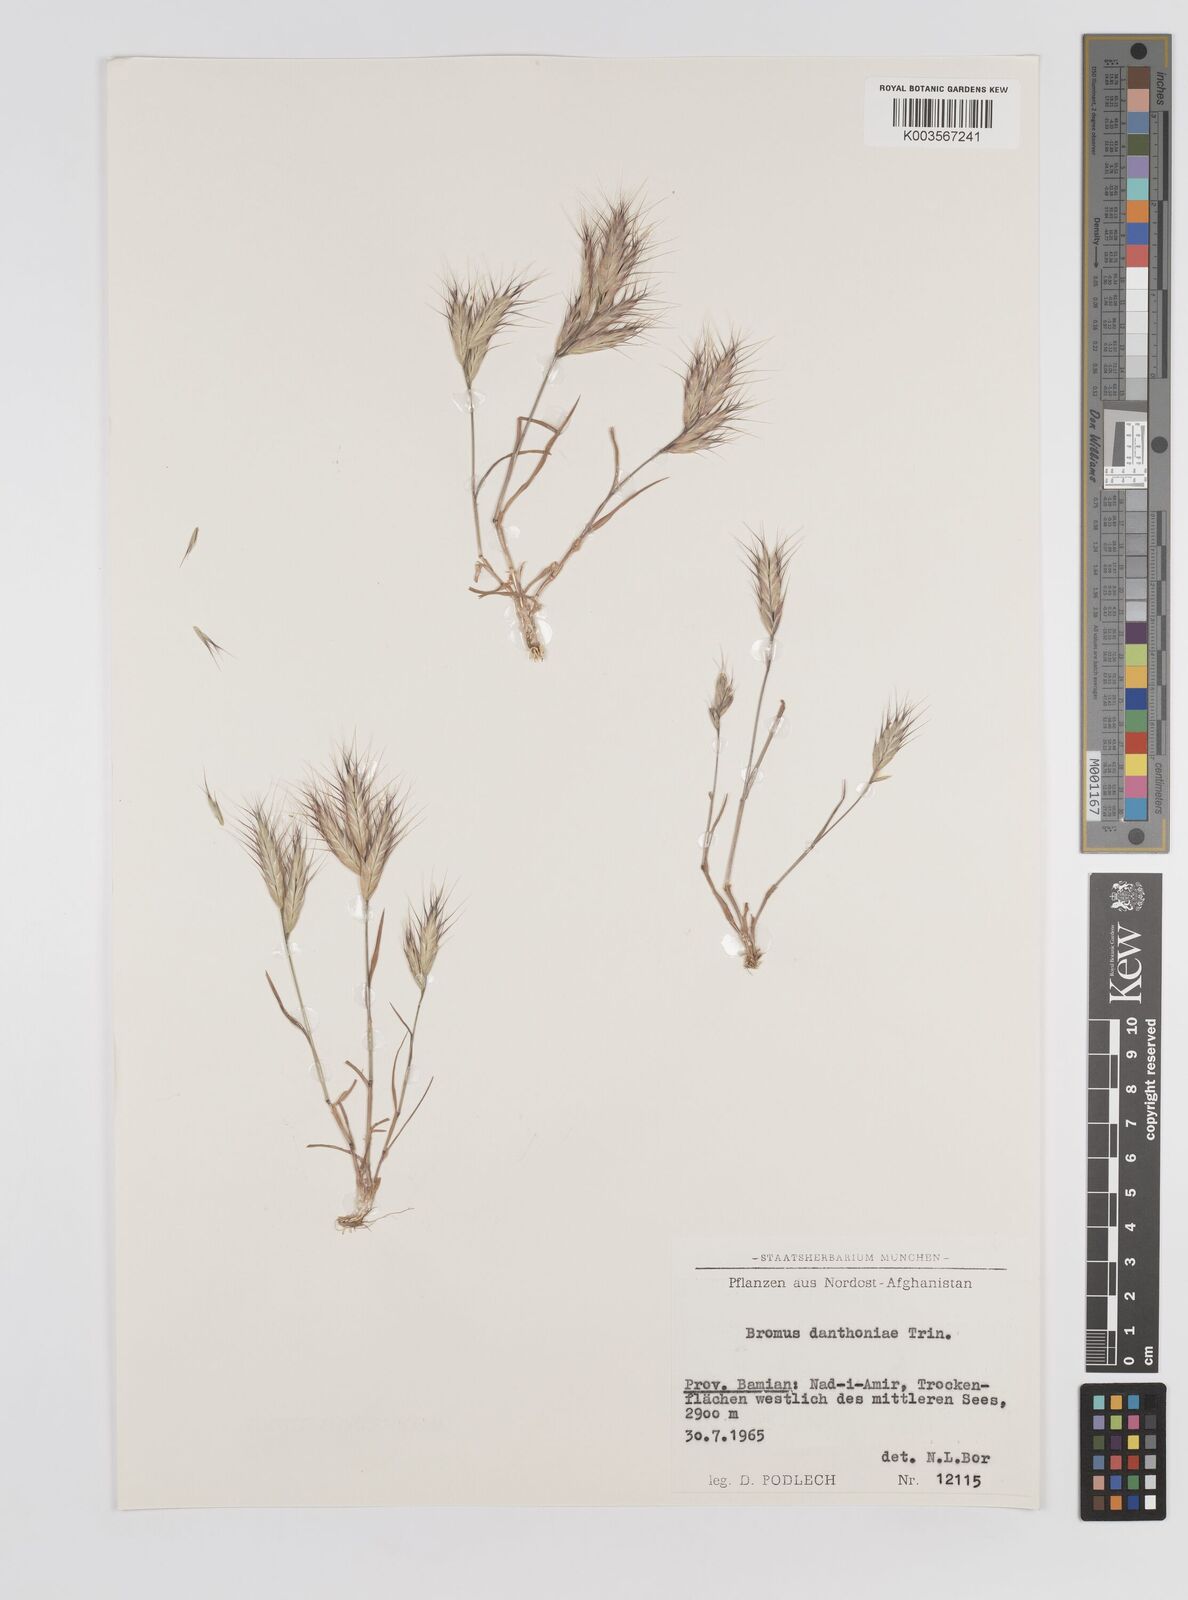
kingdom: Plantae
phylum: Tracheophyta
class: Liliopsida
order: Poales
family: Poaceae
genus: Bromus
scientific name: Bromus danthoniae
